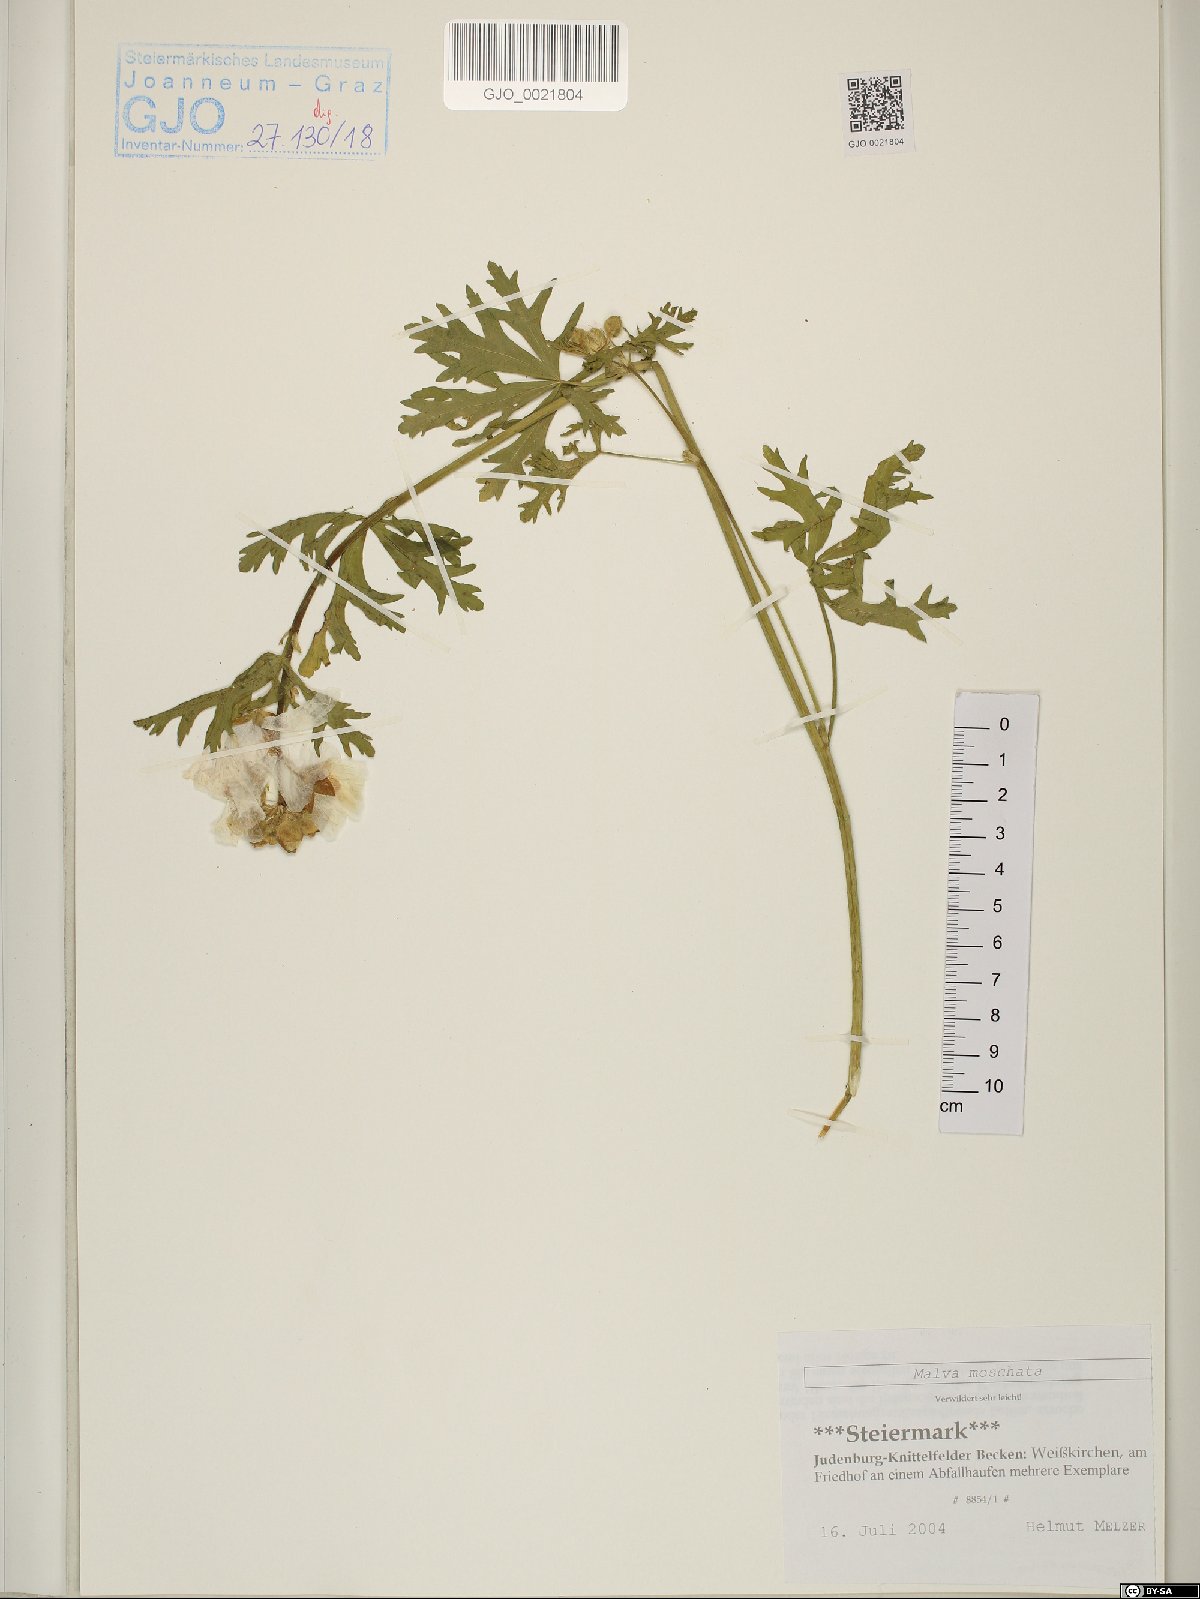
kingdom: Plantae
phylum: Tracheophyta
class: Magnoliopsida
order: Malvales
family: Malvaceae
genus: Malva
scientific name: Malva moschata
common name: Musk mallow
